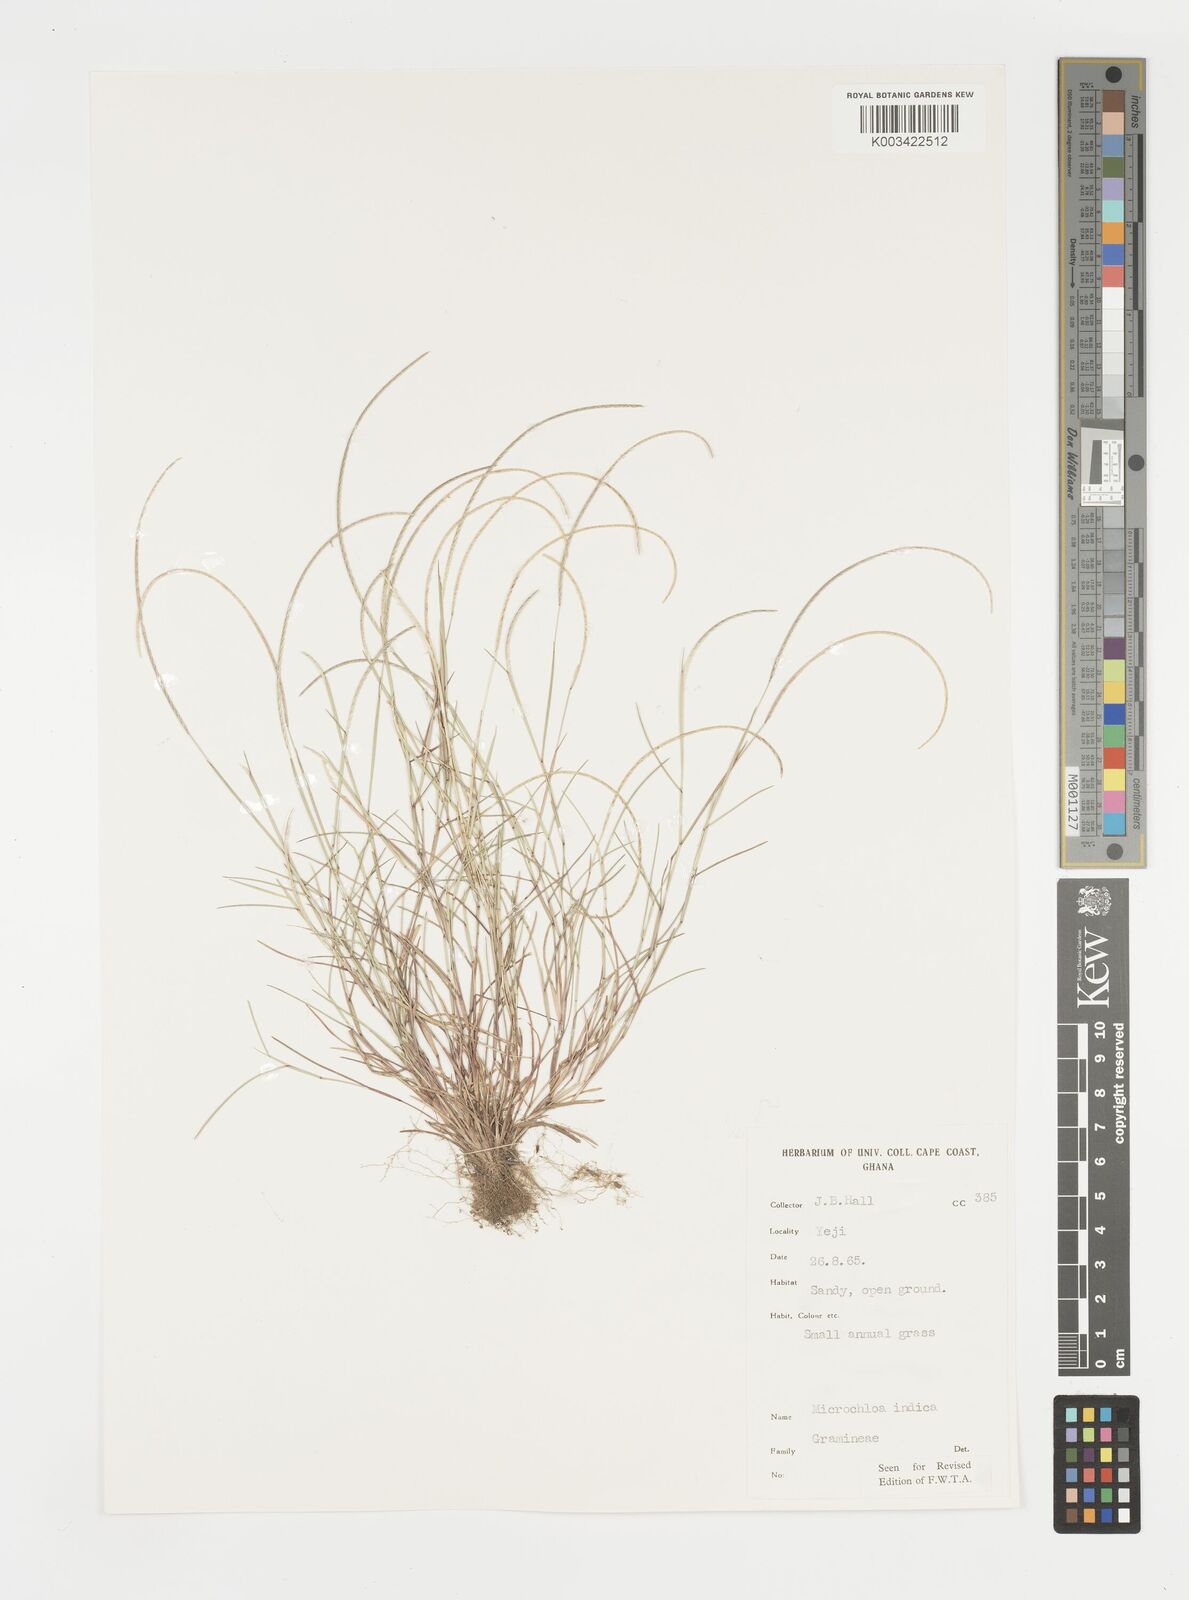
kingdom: Plantae
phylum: Tracheophyta
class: Liliopsida
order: Poales
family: Poaceae
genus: Microchloa
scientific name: Microchloa indica
